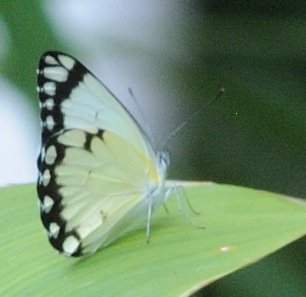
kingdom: Animalia
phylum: Arthropoda
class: Insecta
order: Lepidoptera
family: Pieridae
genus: Belenois
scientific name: Belenois creona
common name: African Caper
